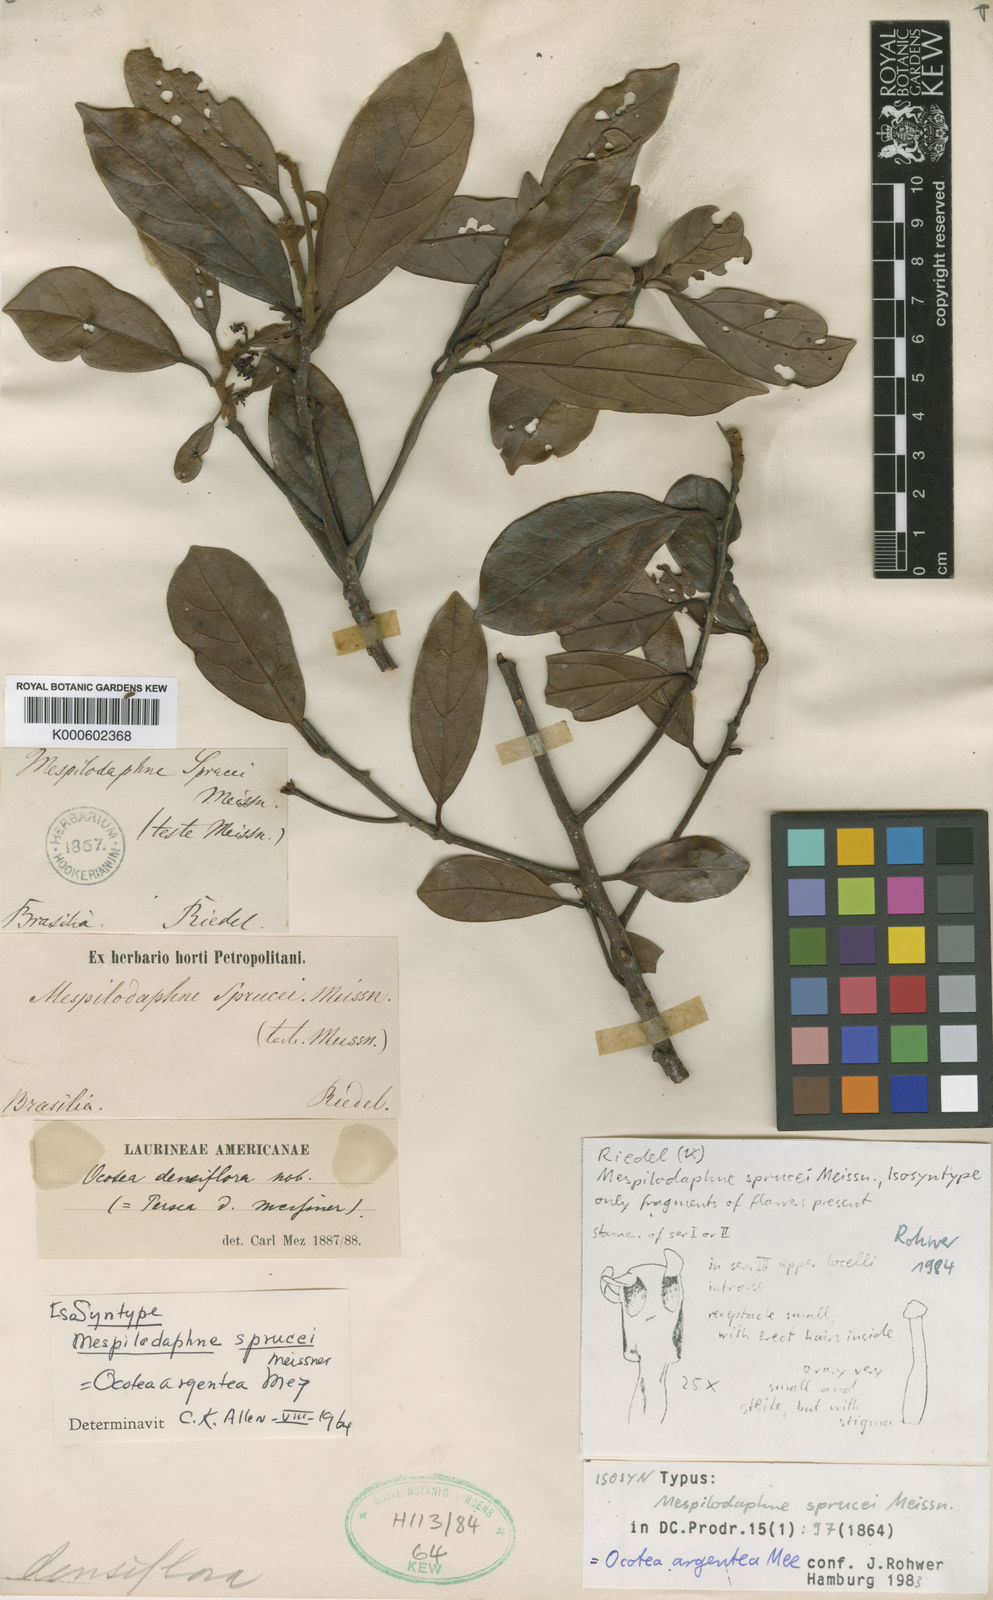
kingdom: Plantae
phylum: Tracheophyta
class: Magnoliopsida
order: Laurales
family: Lauraceae
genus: Ocotea
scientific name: Ocotea argentea
